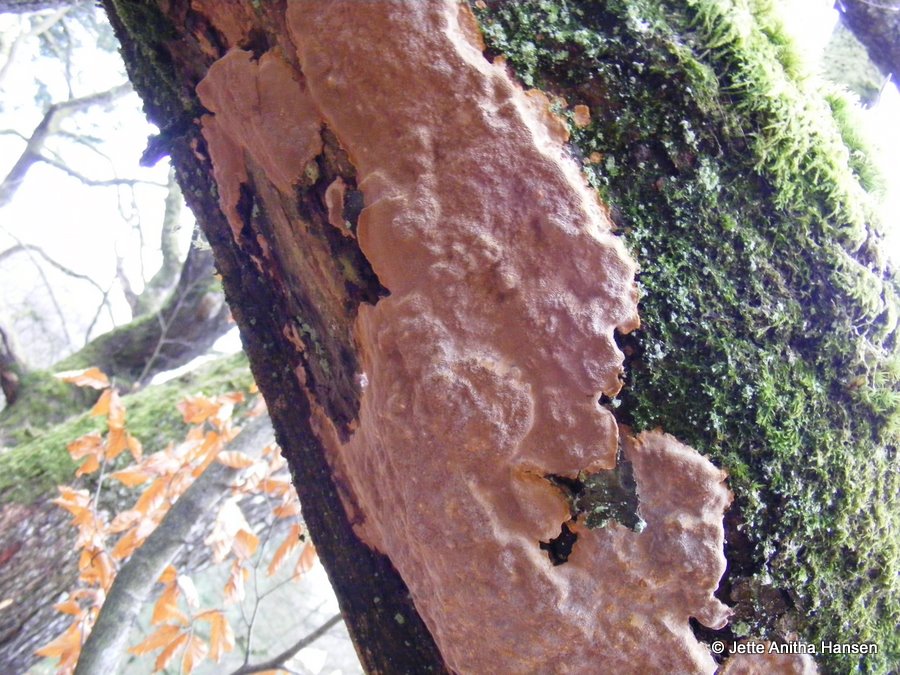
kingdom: Fungi
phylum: Basidiomycota
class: Agaricomycetes
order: Hymenochaetales
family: Hymenochaetaceae
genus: Fuscoporia
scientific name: Fuscoporia ferrea
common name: skorpe-ildporesvamp
